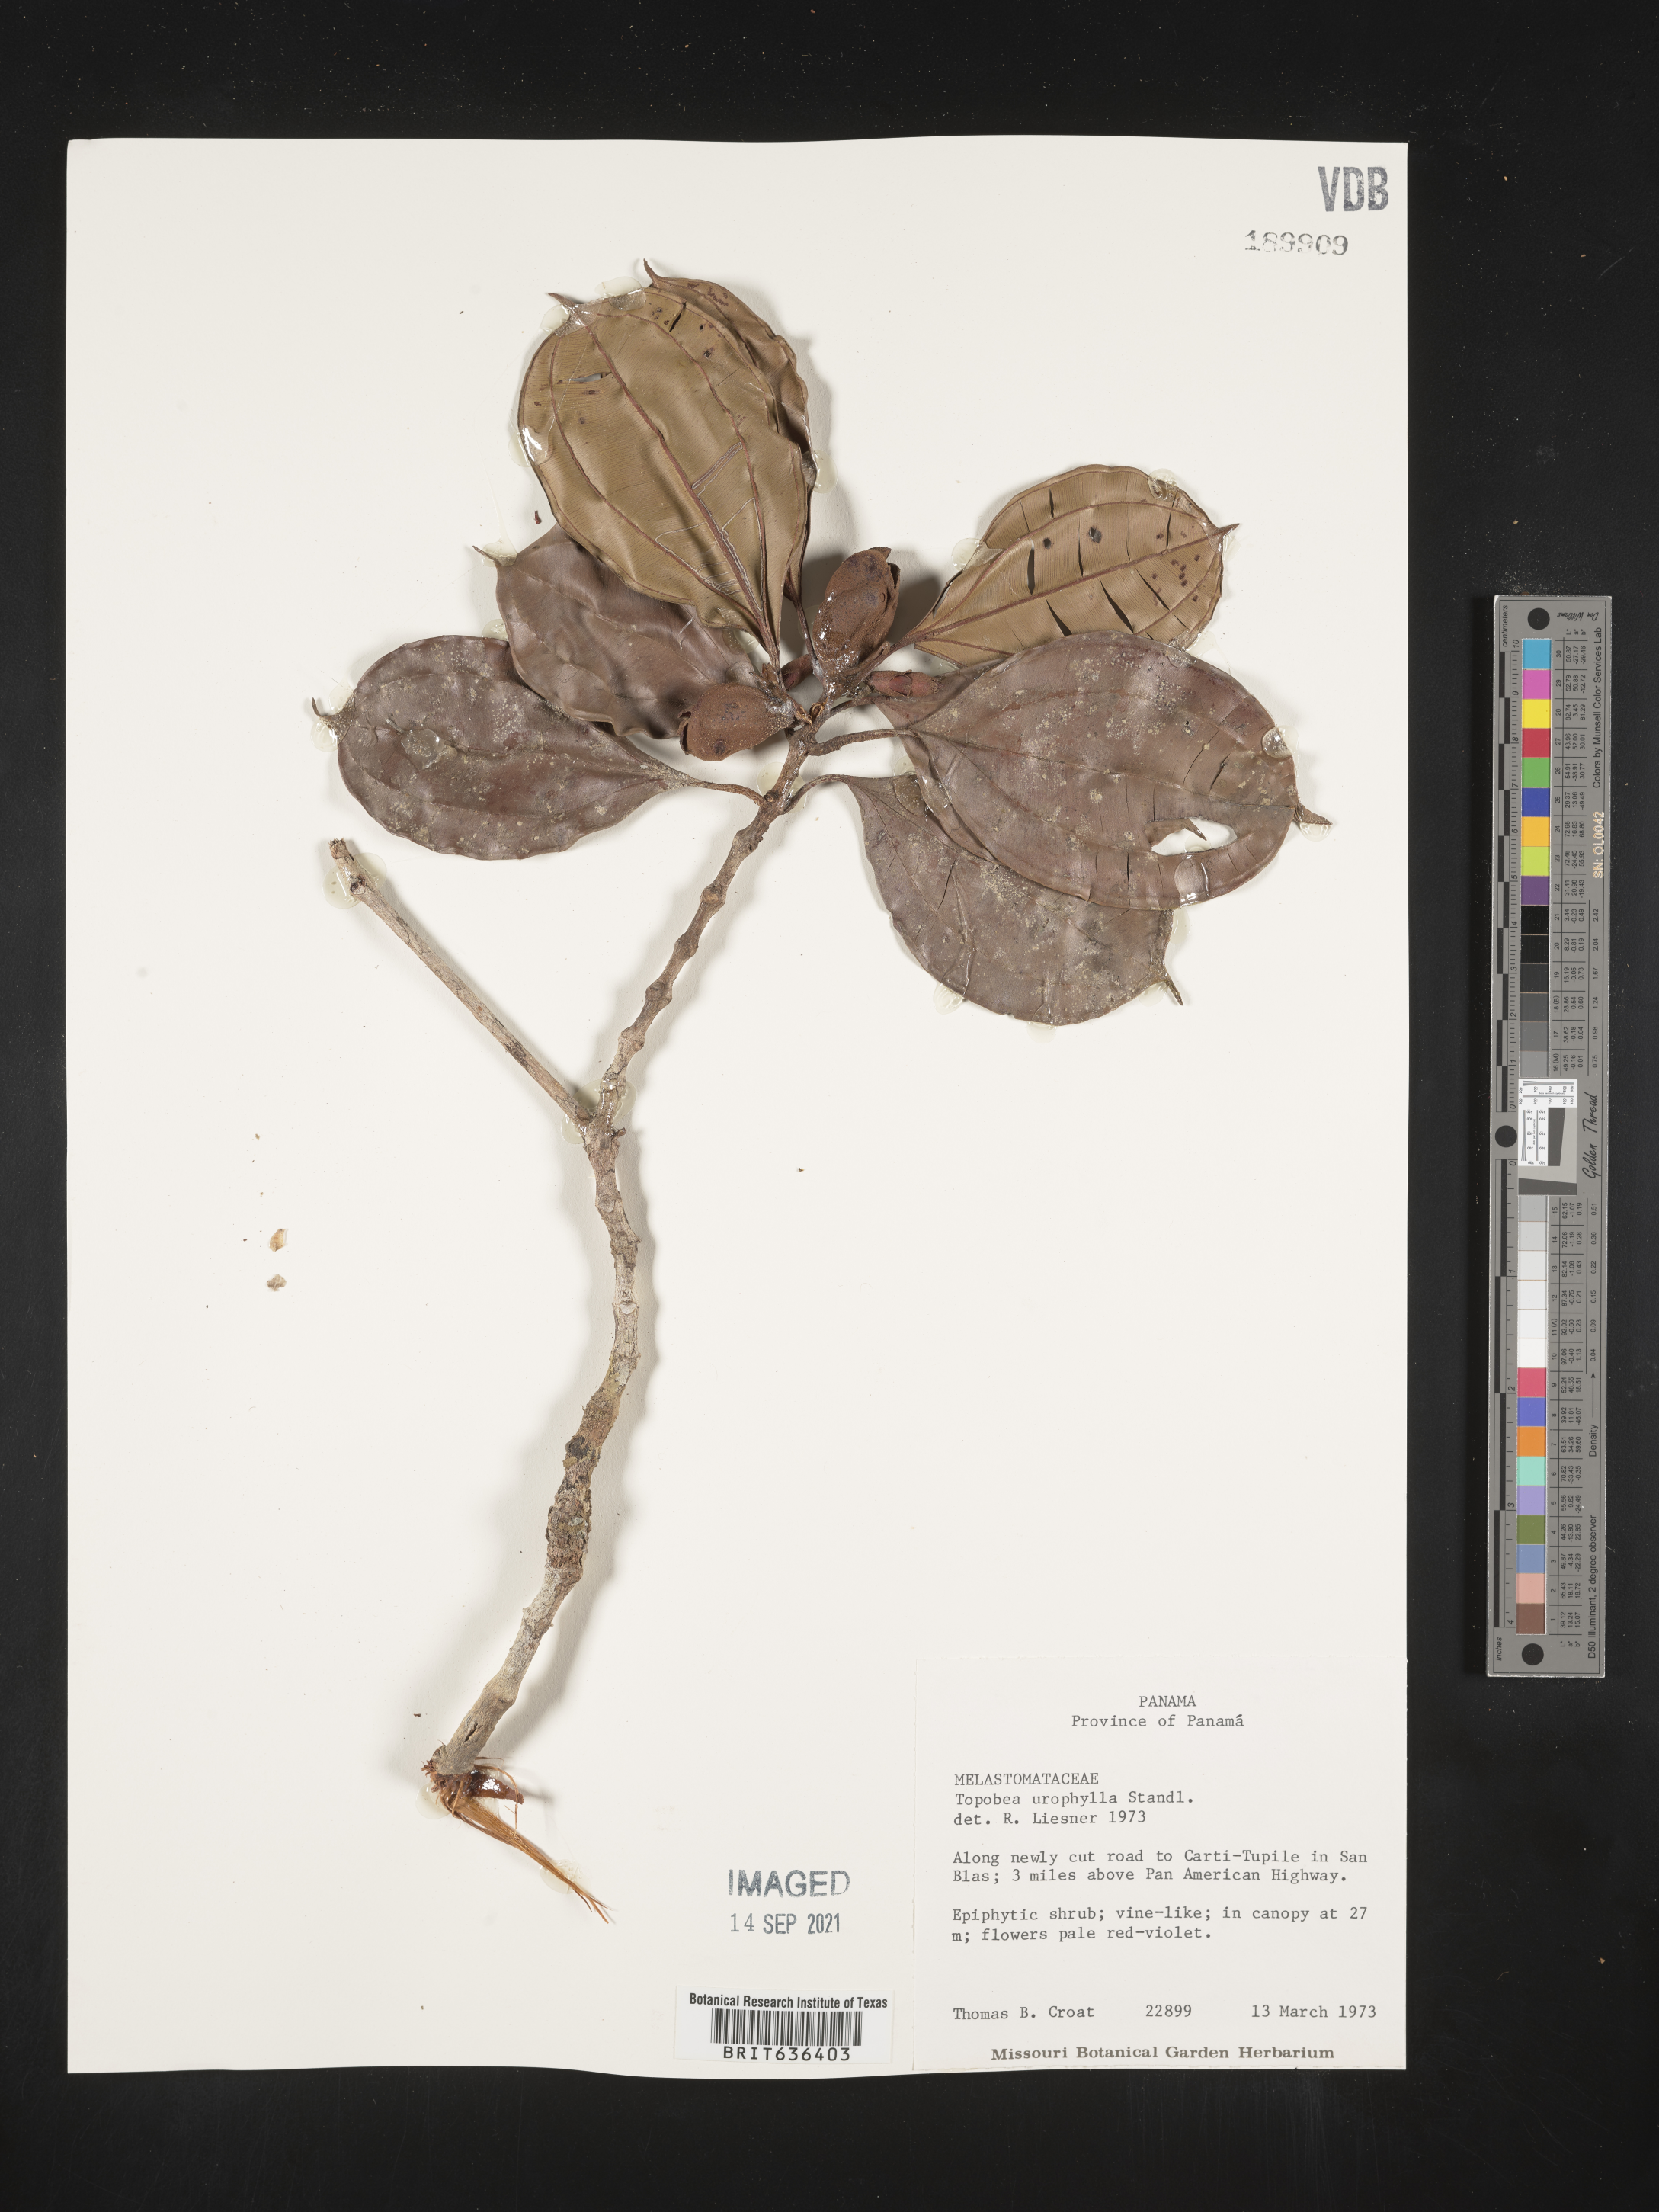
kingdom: Plantae
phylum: Tracheophyta
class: Magnoliopsida
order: Myrtales
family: Melastomataceae
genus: Blakea
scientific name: Blakea
